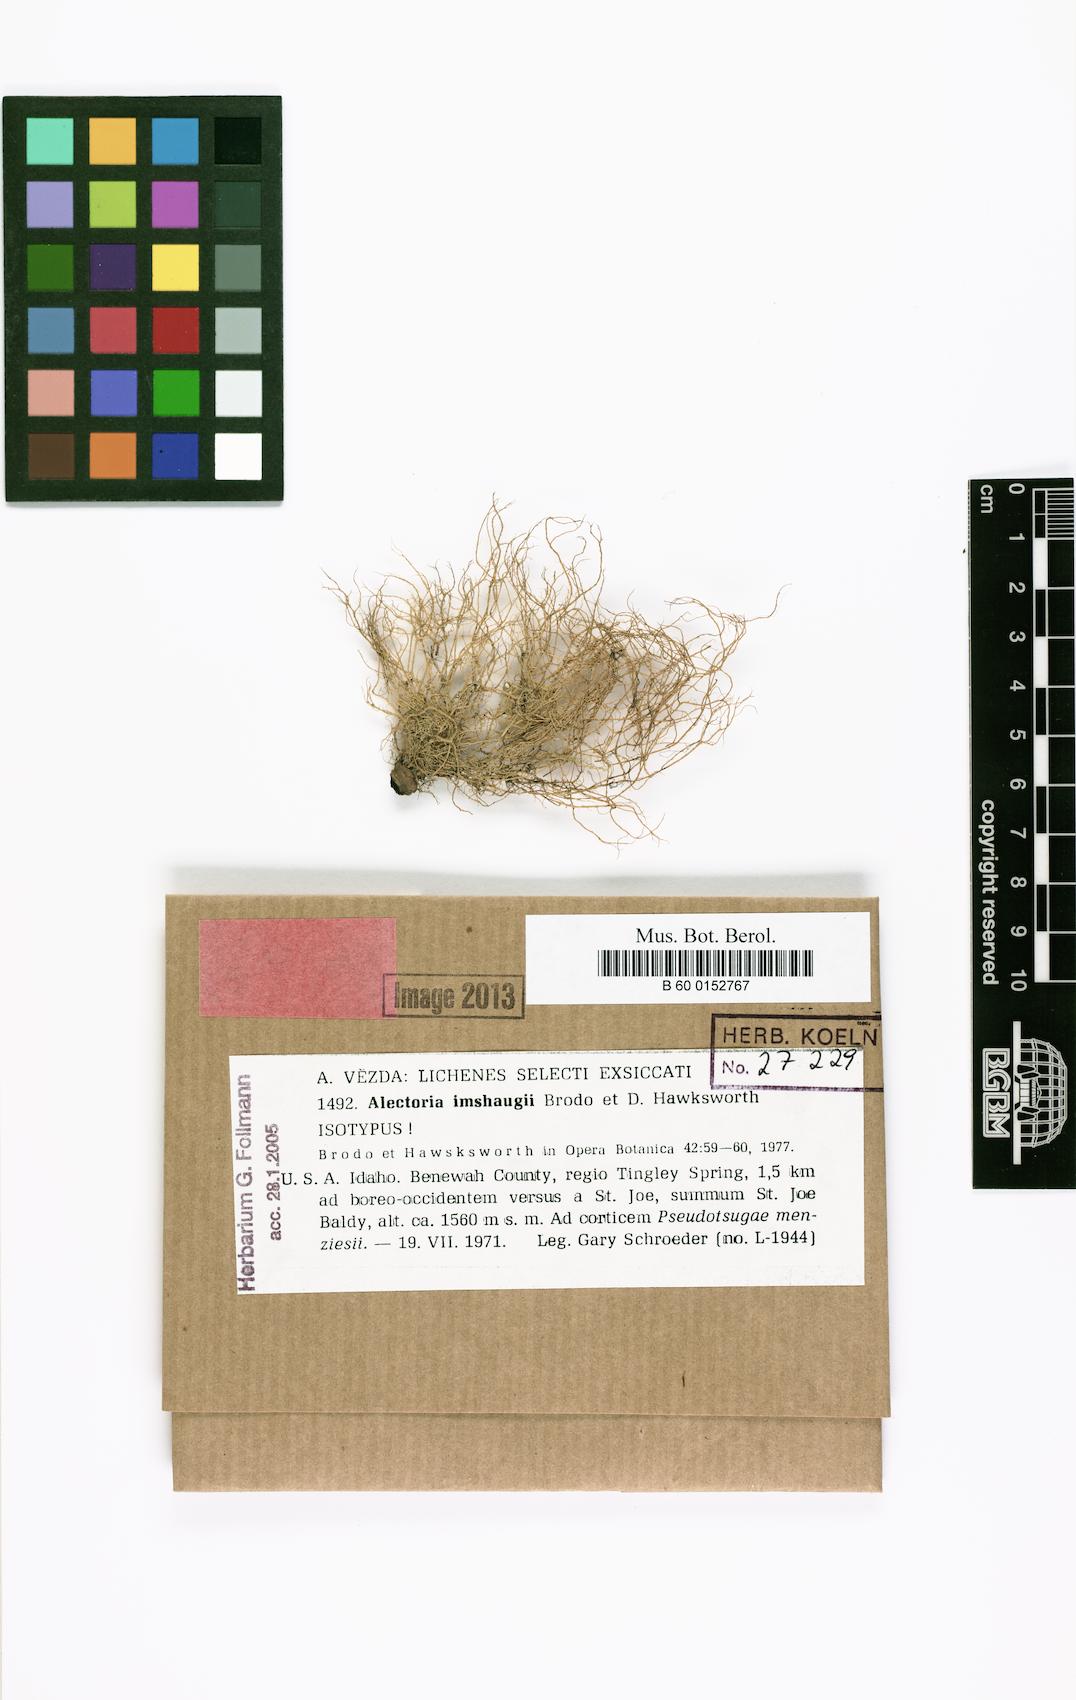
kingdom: Fungi
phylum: Ascomycota
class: Lecanoromycetes
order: Lecanorales
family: Parmeliaceae
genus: Alectoria
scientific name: Alectoria imshaugii
